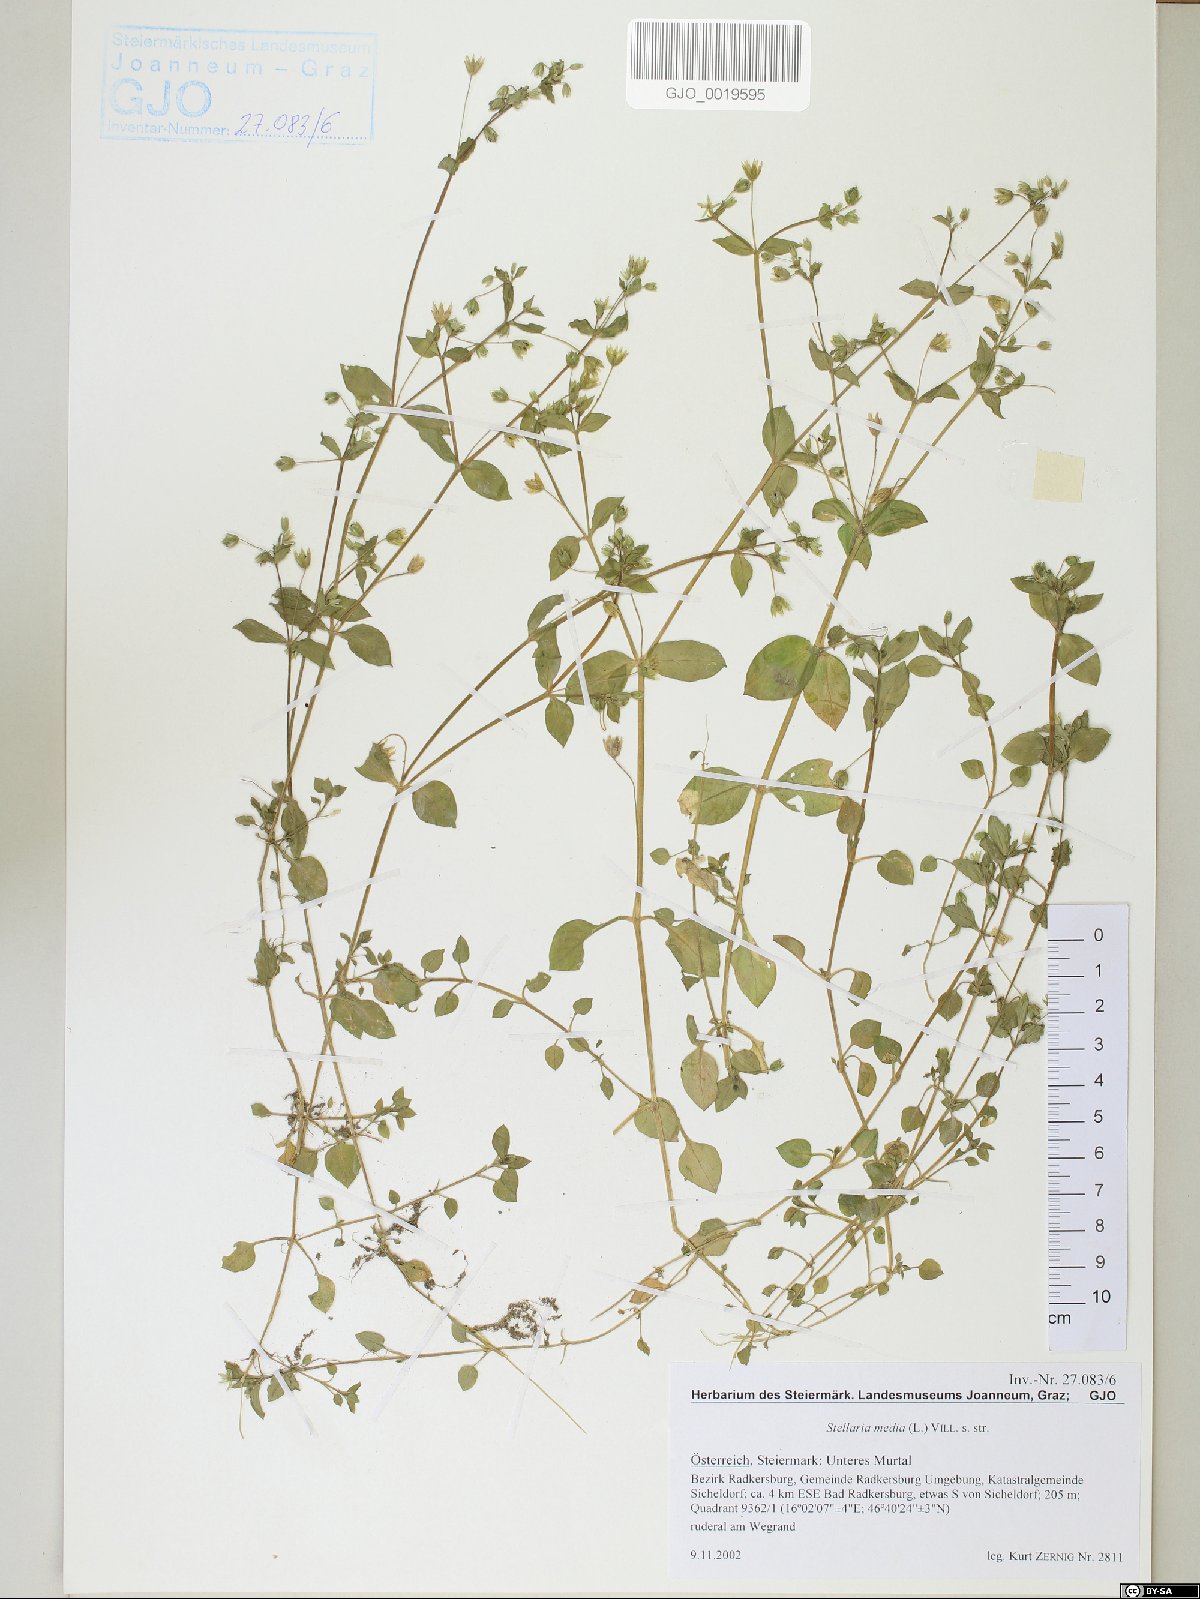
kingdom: Plantae
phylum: Tracheophyta
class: Magnoliopsida
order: Caryophyllales
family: Caryophyllaceae
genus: Stellaria
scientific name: Stellaria media
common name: Common chickweed
